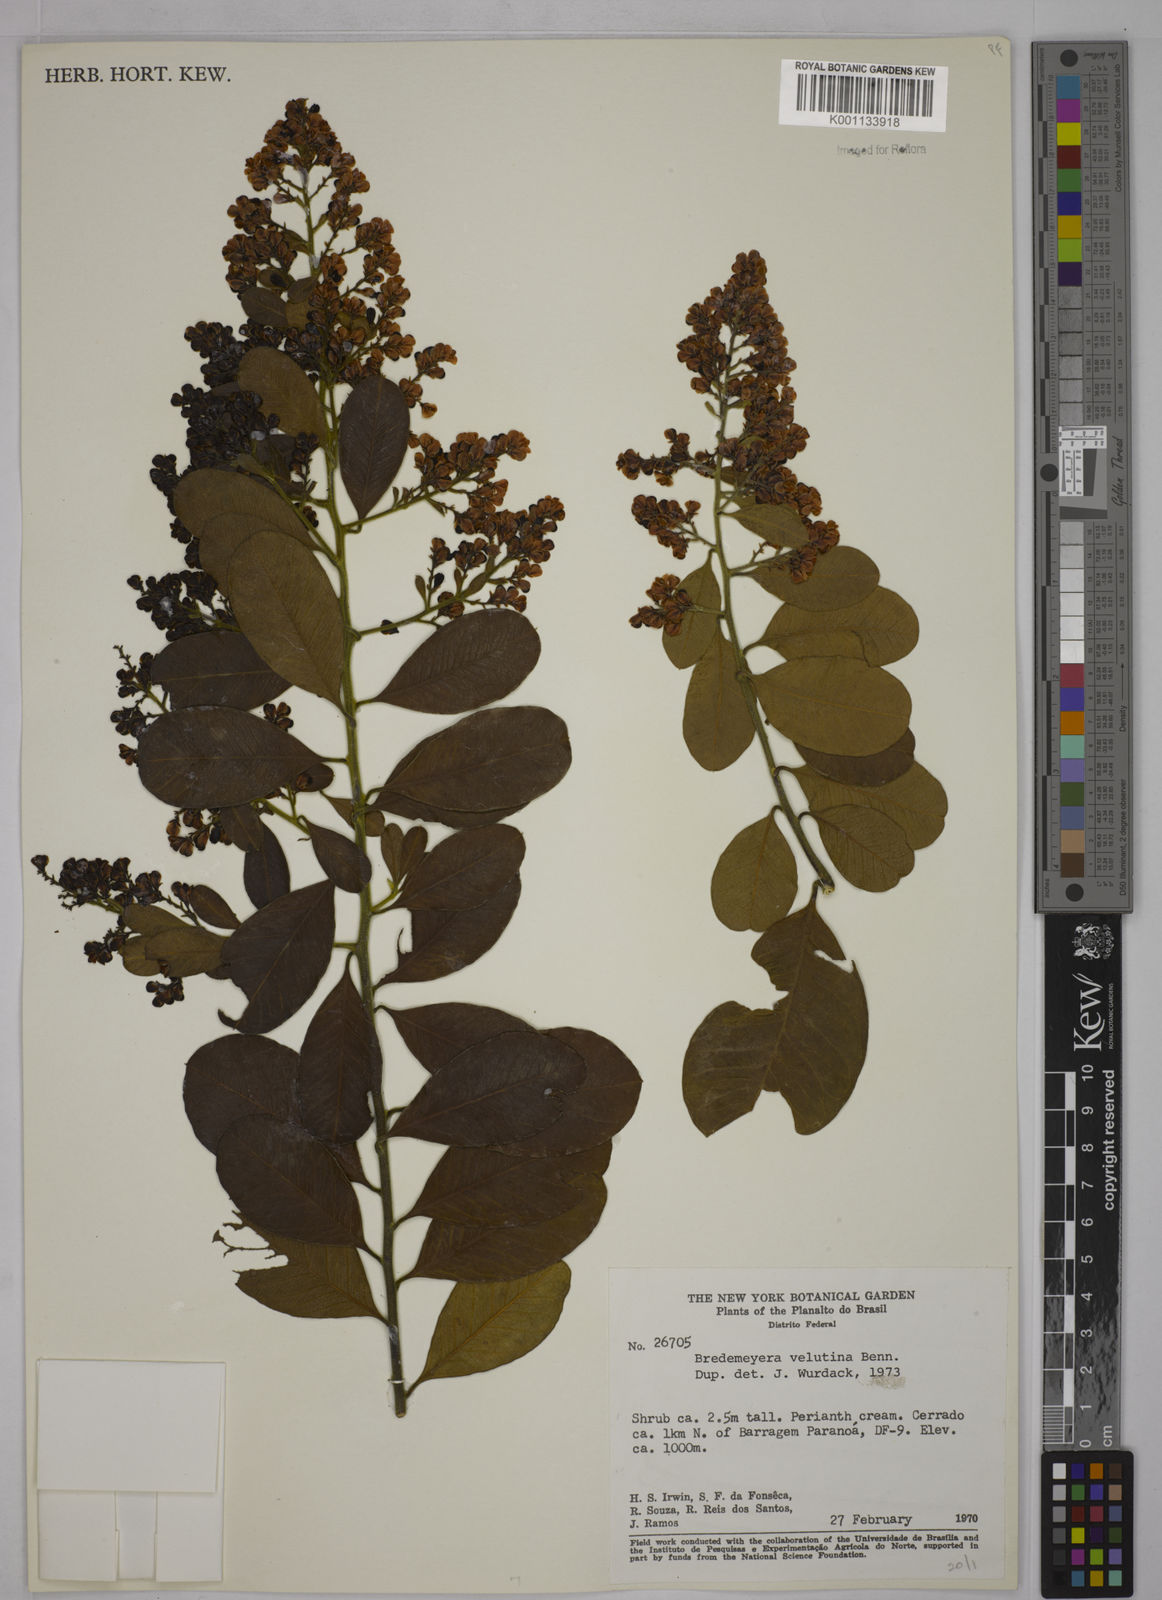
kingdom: Plantae
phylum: Tracheophyta
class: Magnoliopsida
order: Fabales
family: Polygalaceae
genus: Bredemeyera
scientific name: Bredemeyera hebeclada
